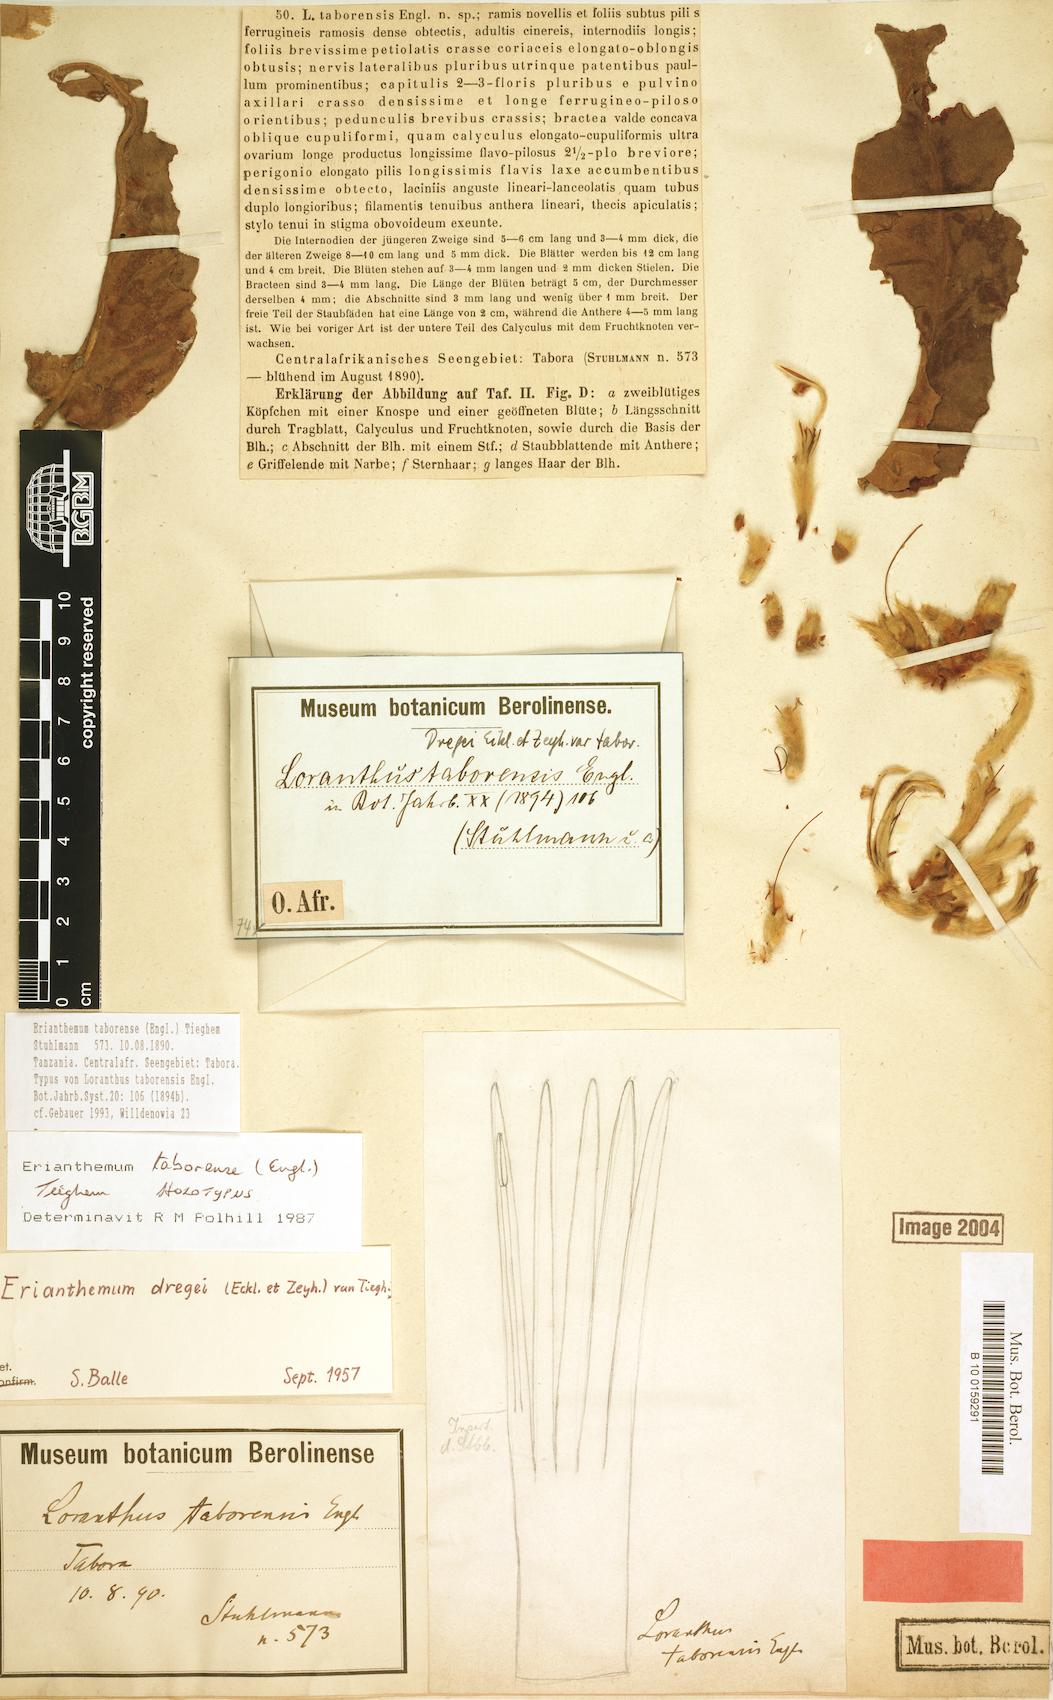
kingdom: Plantae
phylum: Tracheophyta
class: Magnoliopsida
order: Santalales
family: Loranthaceae
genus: Erianthemum
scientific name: Erianthemum taborense
